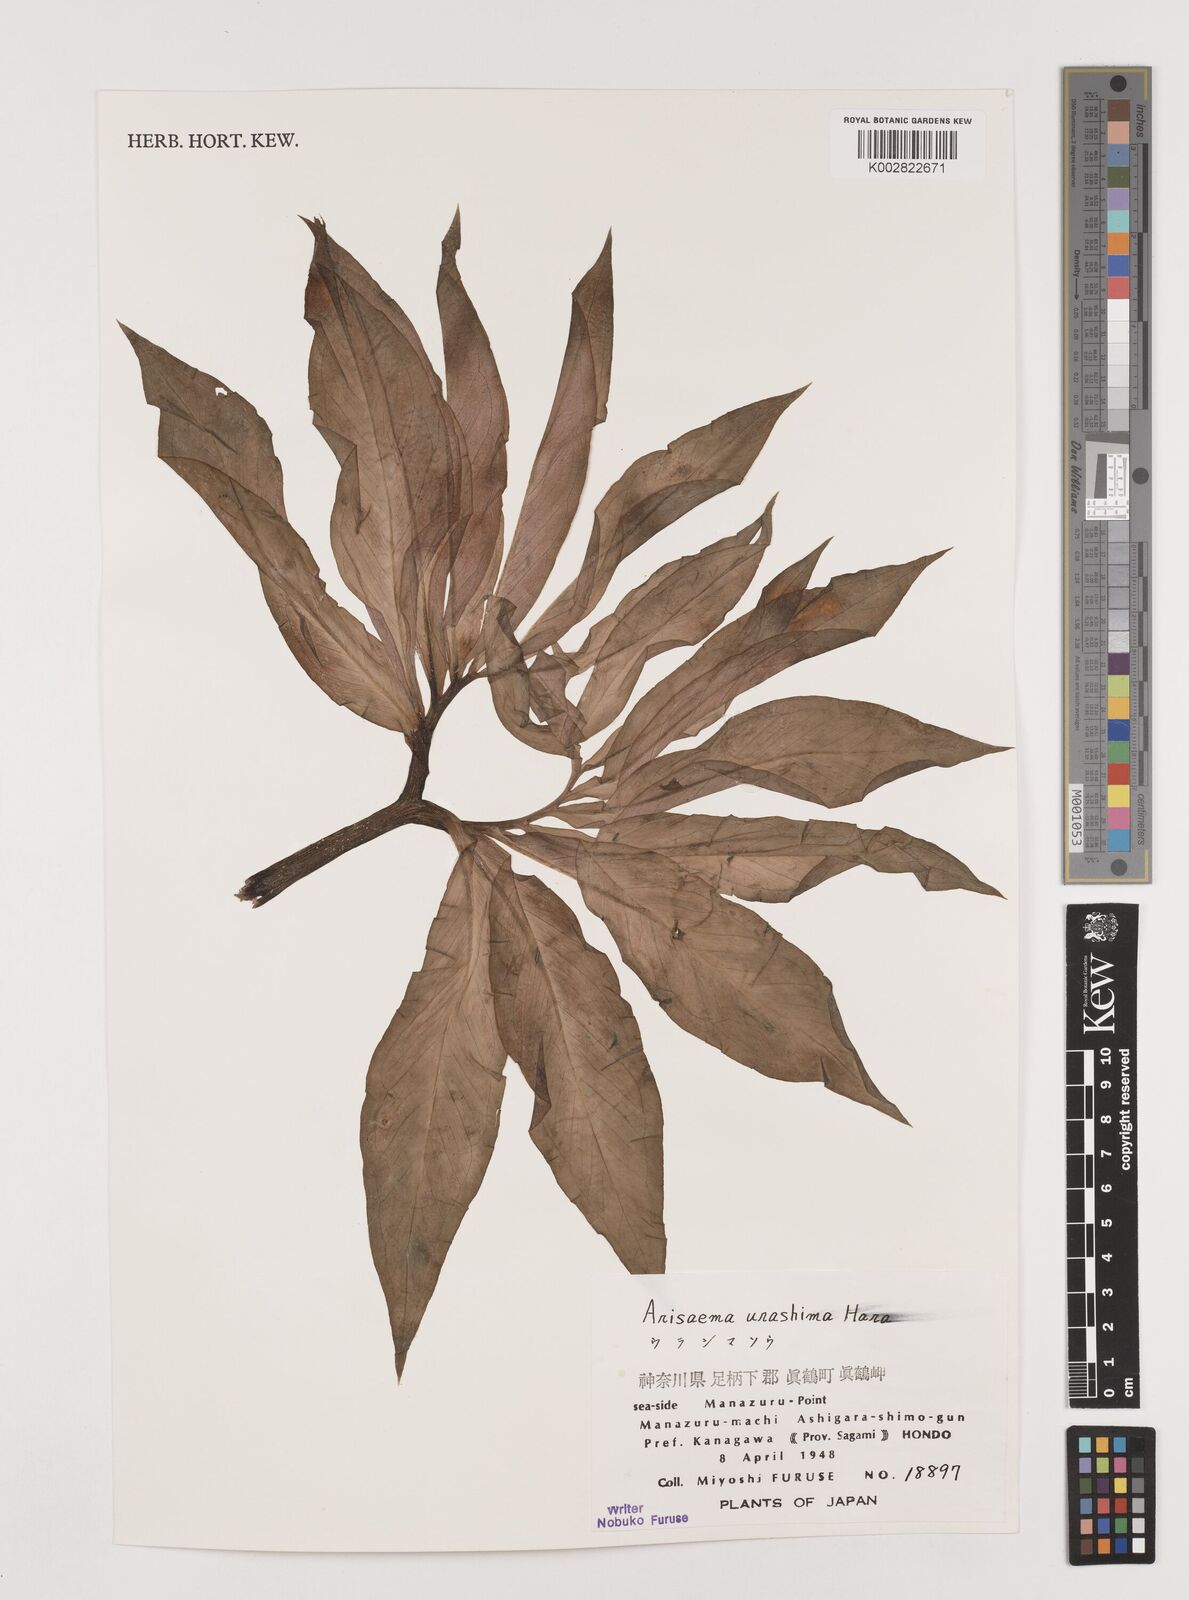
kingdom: Plantae
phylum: Tracheophyta
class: Liliopsida
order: Alismatales
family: Araceae
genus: Arisaema
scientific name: Arisaema
